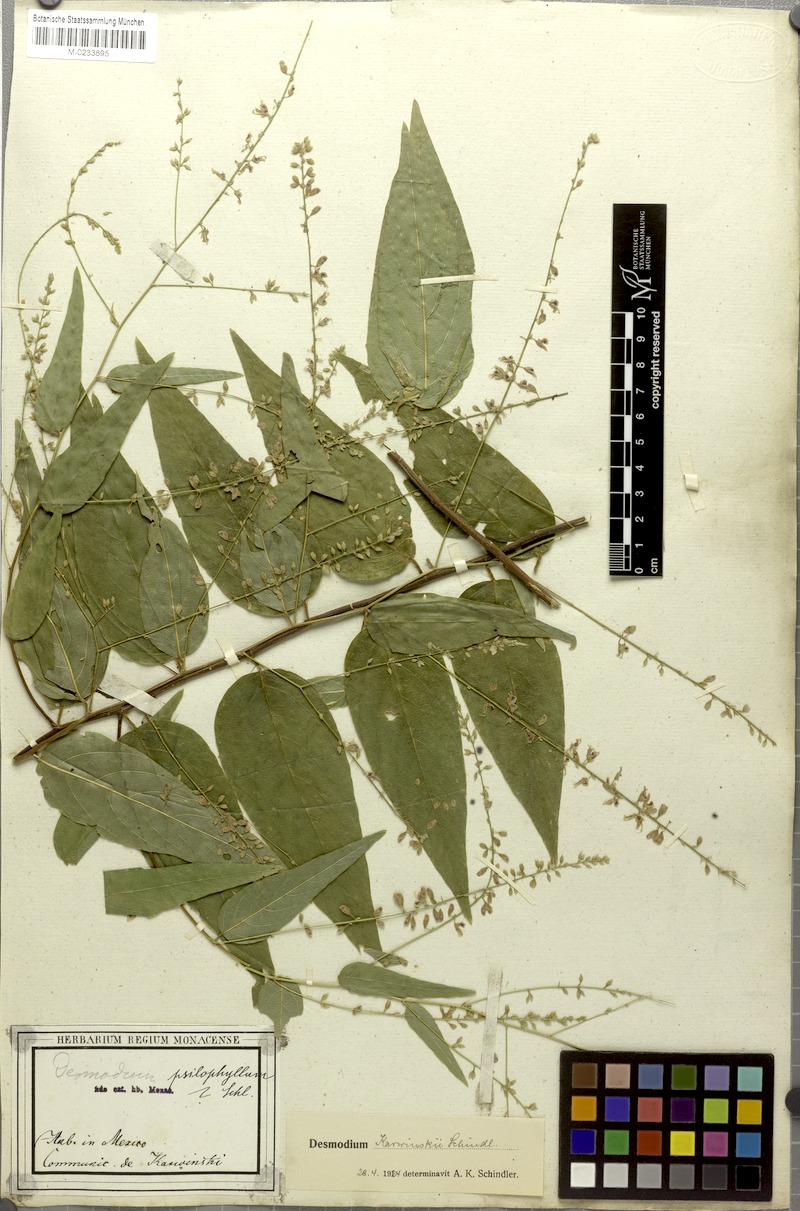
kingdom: Plantae
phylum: Tracheophyta
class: Magnoliopsida
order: Fabales
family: Fabaceae
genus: Desmodium
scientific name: Desmodium karwinskii
